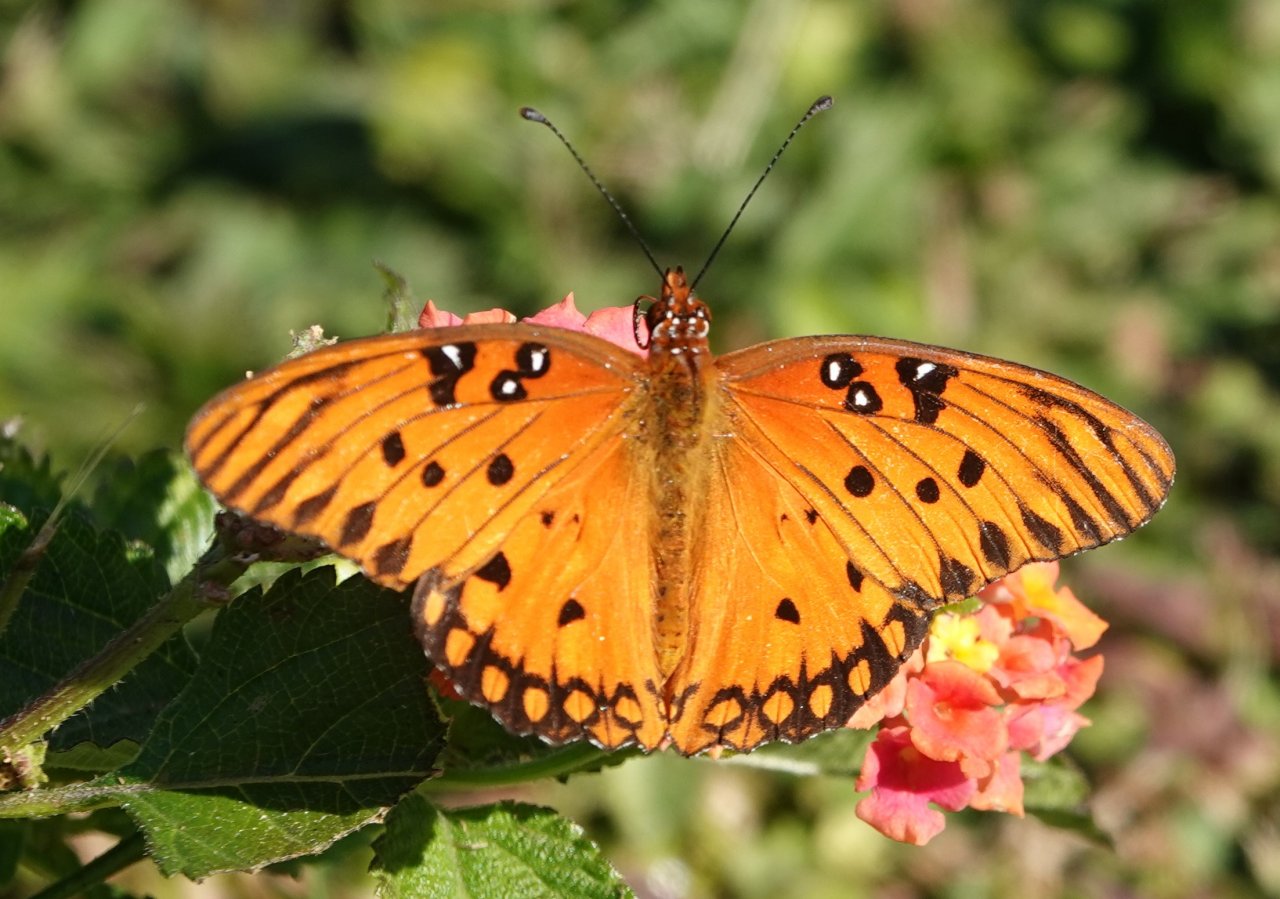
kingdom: Animalia
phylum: Arthropoda
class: Insecta
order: Lepidoptera
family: Nymphalidae
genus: Dione
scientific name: Dione vanillae
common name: Gulf Fritillary
